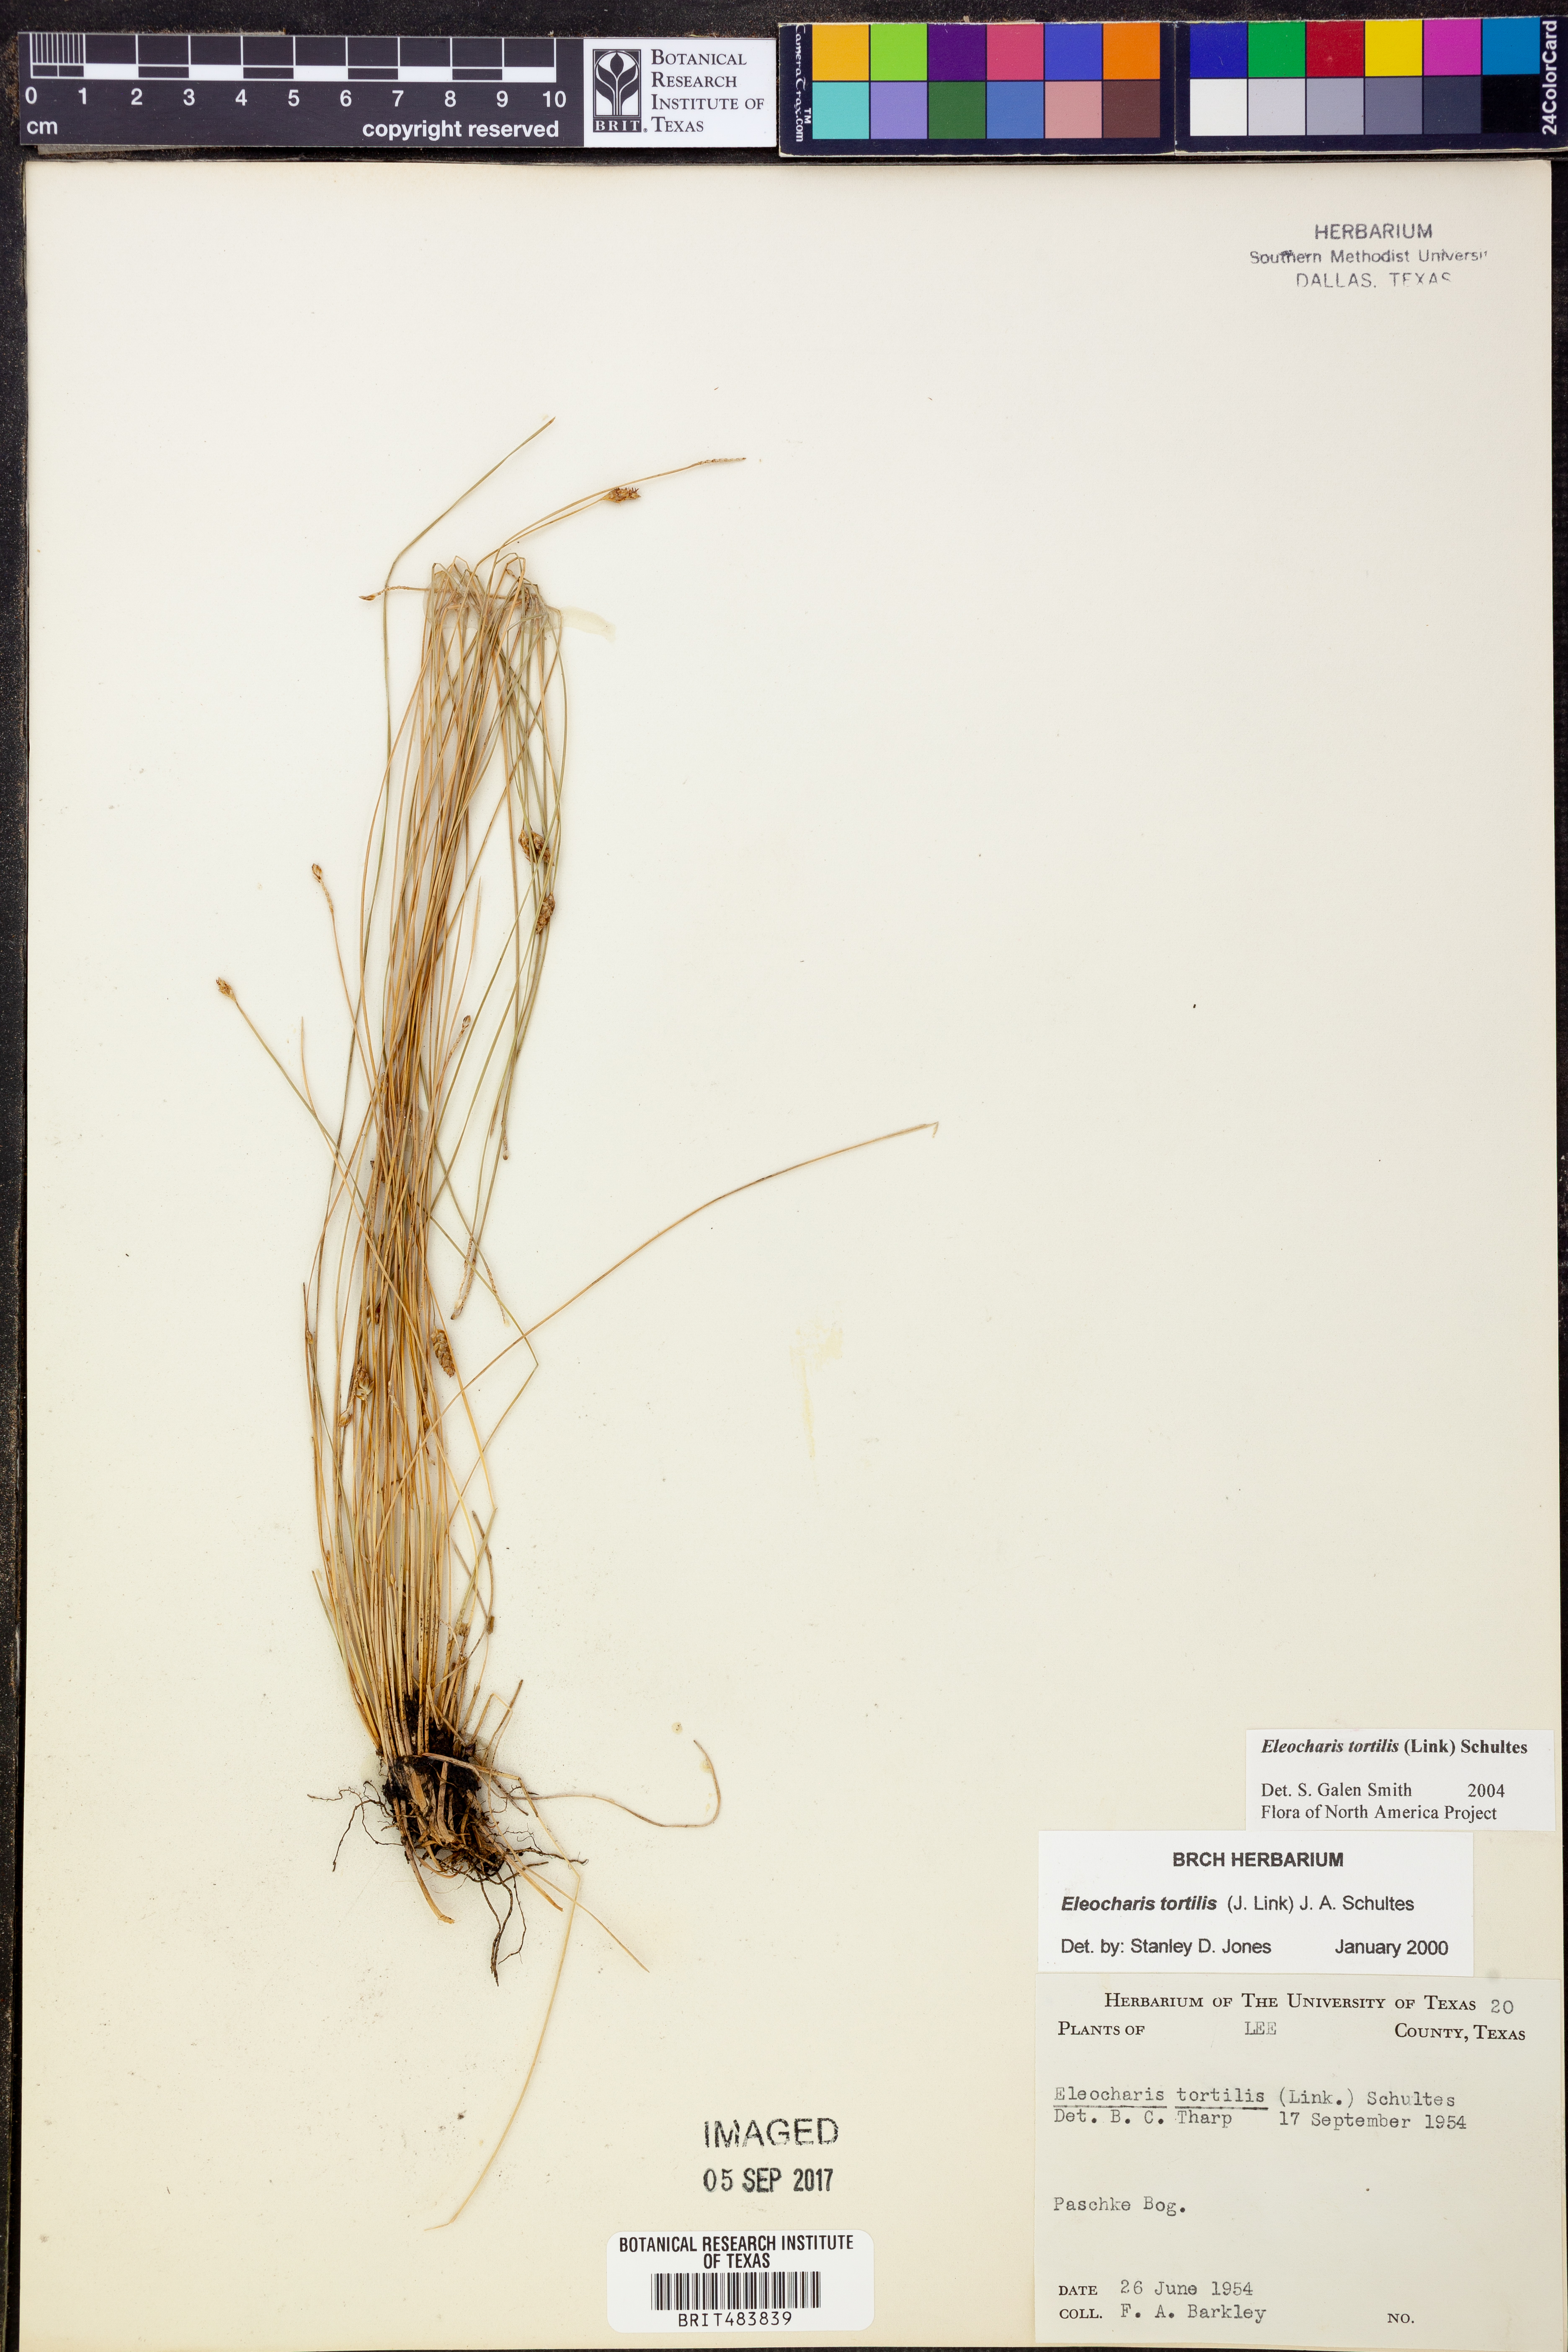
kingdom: Plantae
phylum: Tracheophyta
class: Liliopsida
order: Poales
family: Cyperaceae
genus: Eleocharis
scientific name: Eleocharis tortilis
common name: Twisted spike sedge
